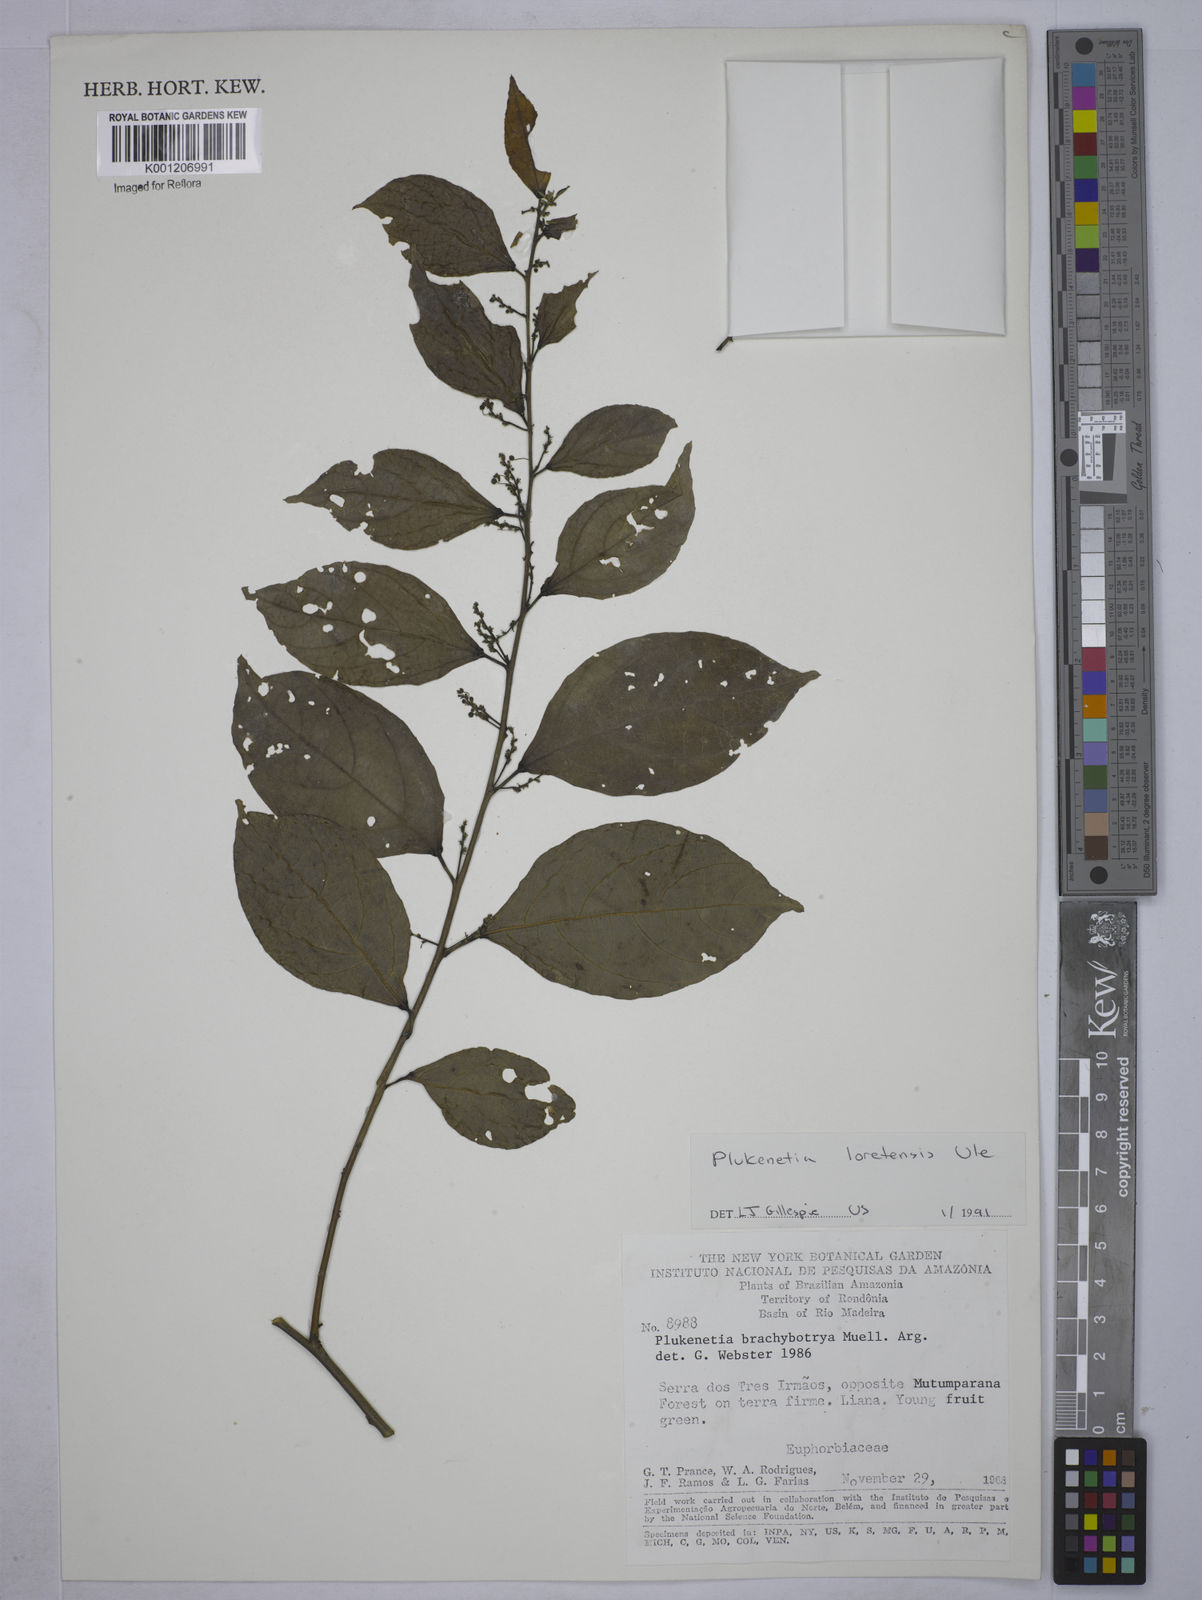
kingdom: Plantae
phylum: Tracheophyta
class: Magnoliopsida
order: Malpighiales
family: Euphorbiaceae
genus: Plukenetia
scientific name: Plukenetia loretensis
